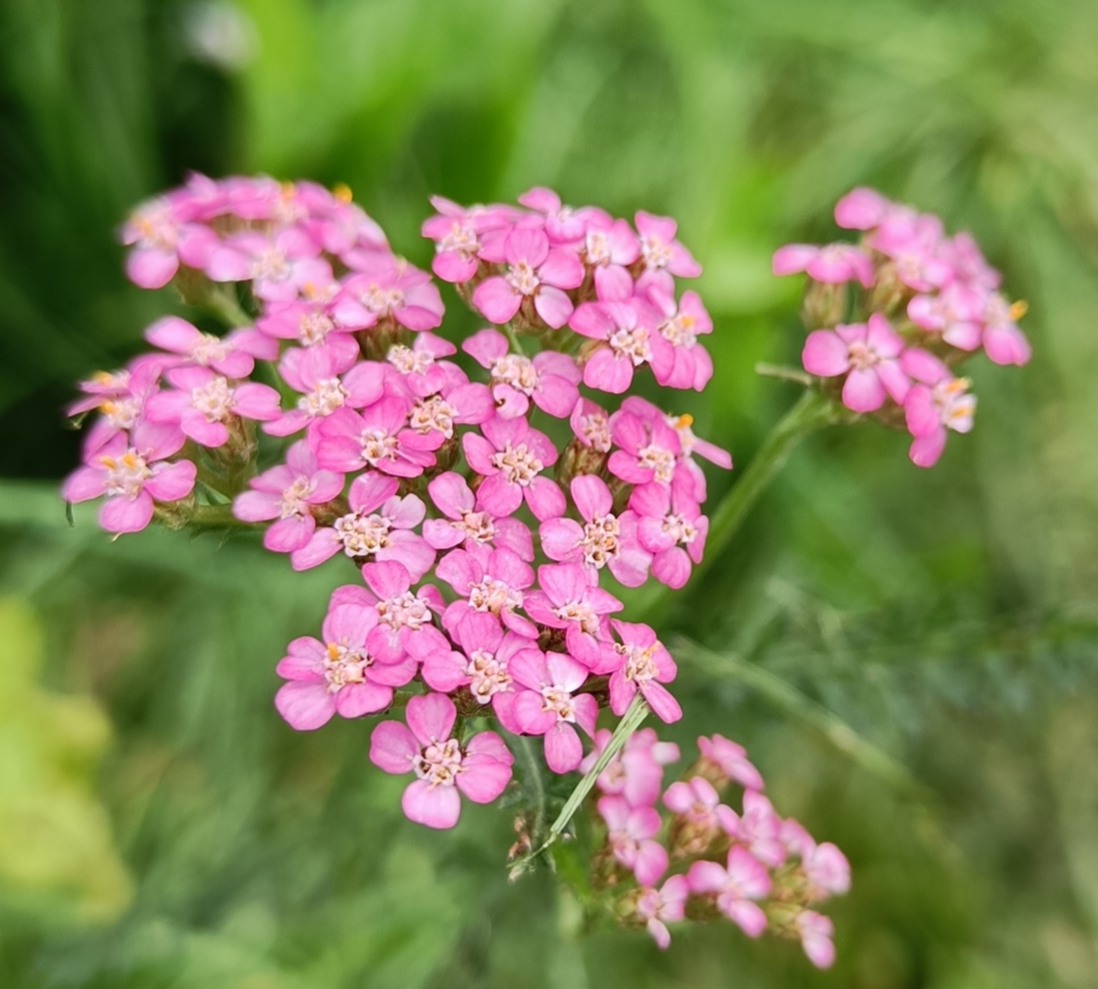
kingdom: Plantae
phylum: Tracheophyta
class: Magnoliopsida
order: Asterales
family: Asteraceae
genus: Achillea
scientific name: Achillea millefolium
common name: Almindelig røllike
